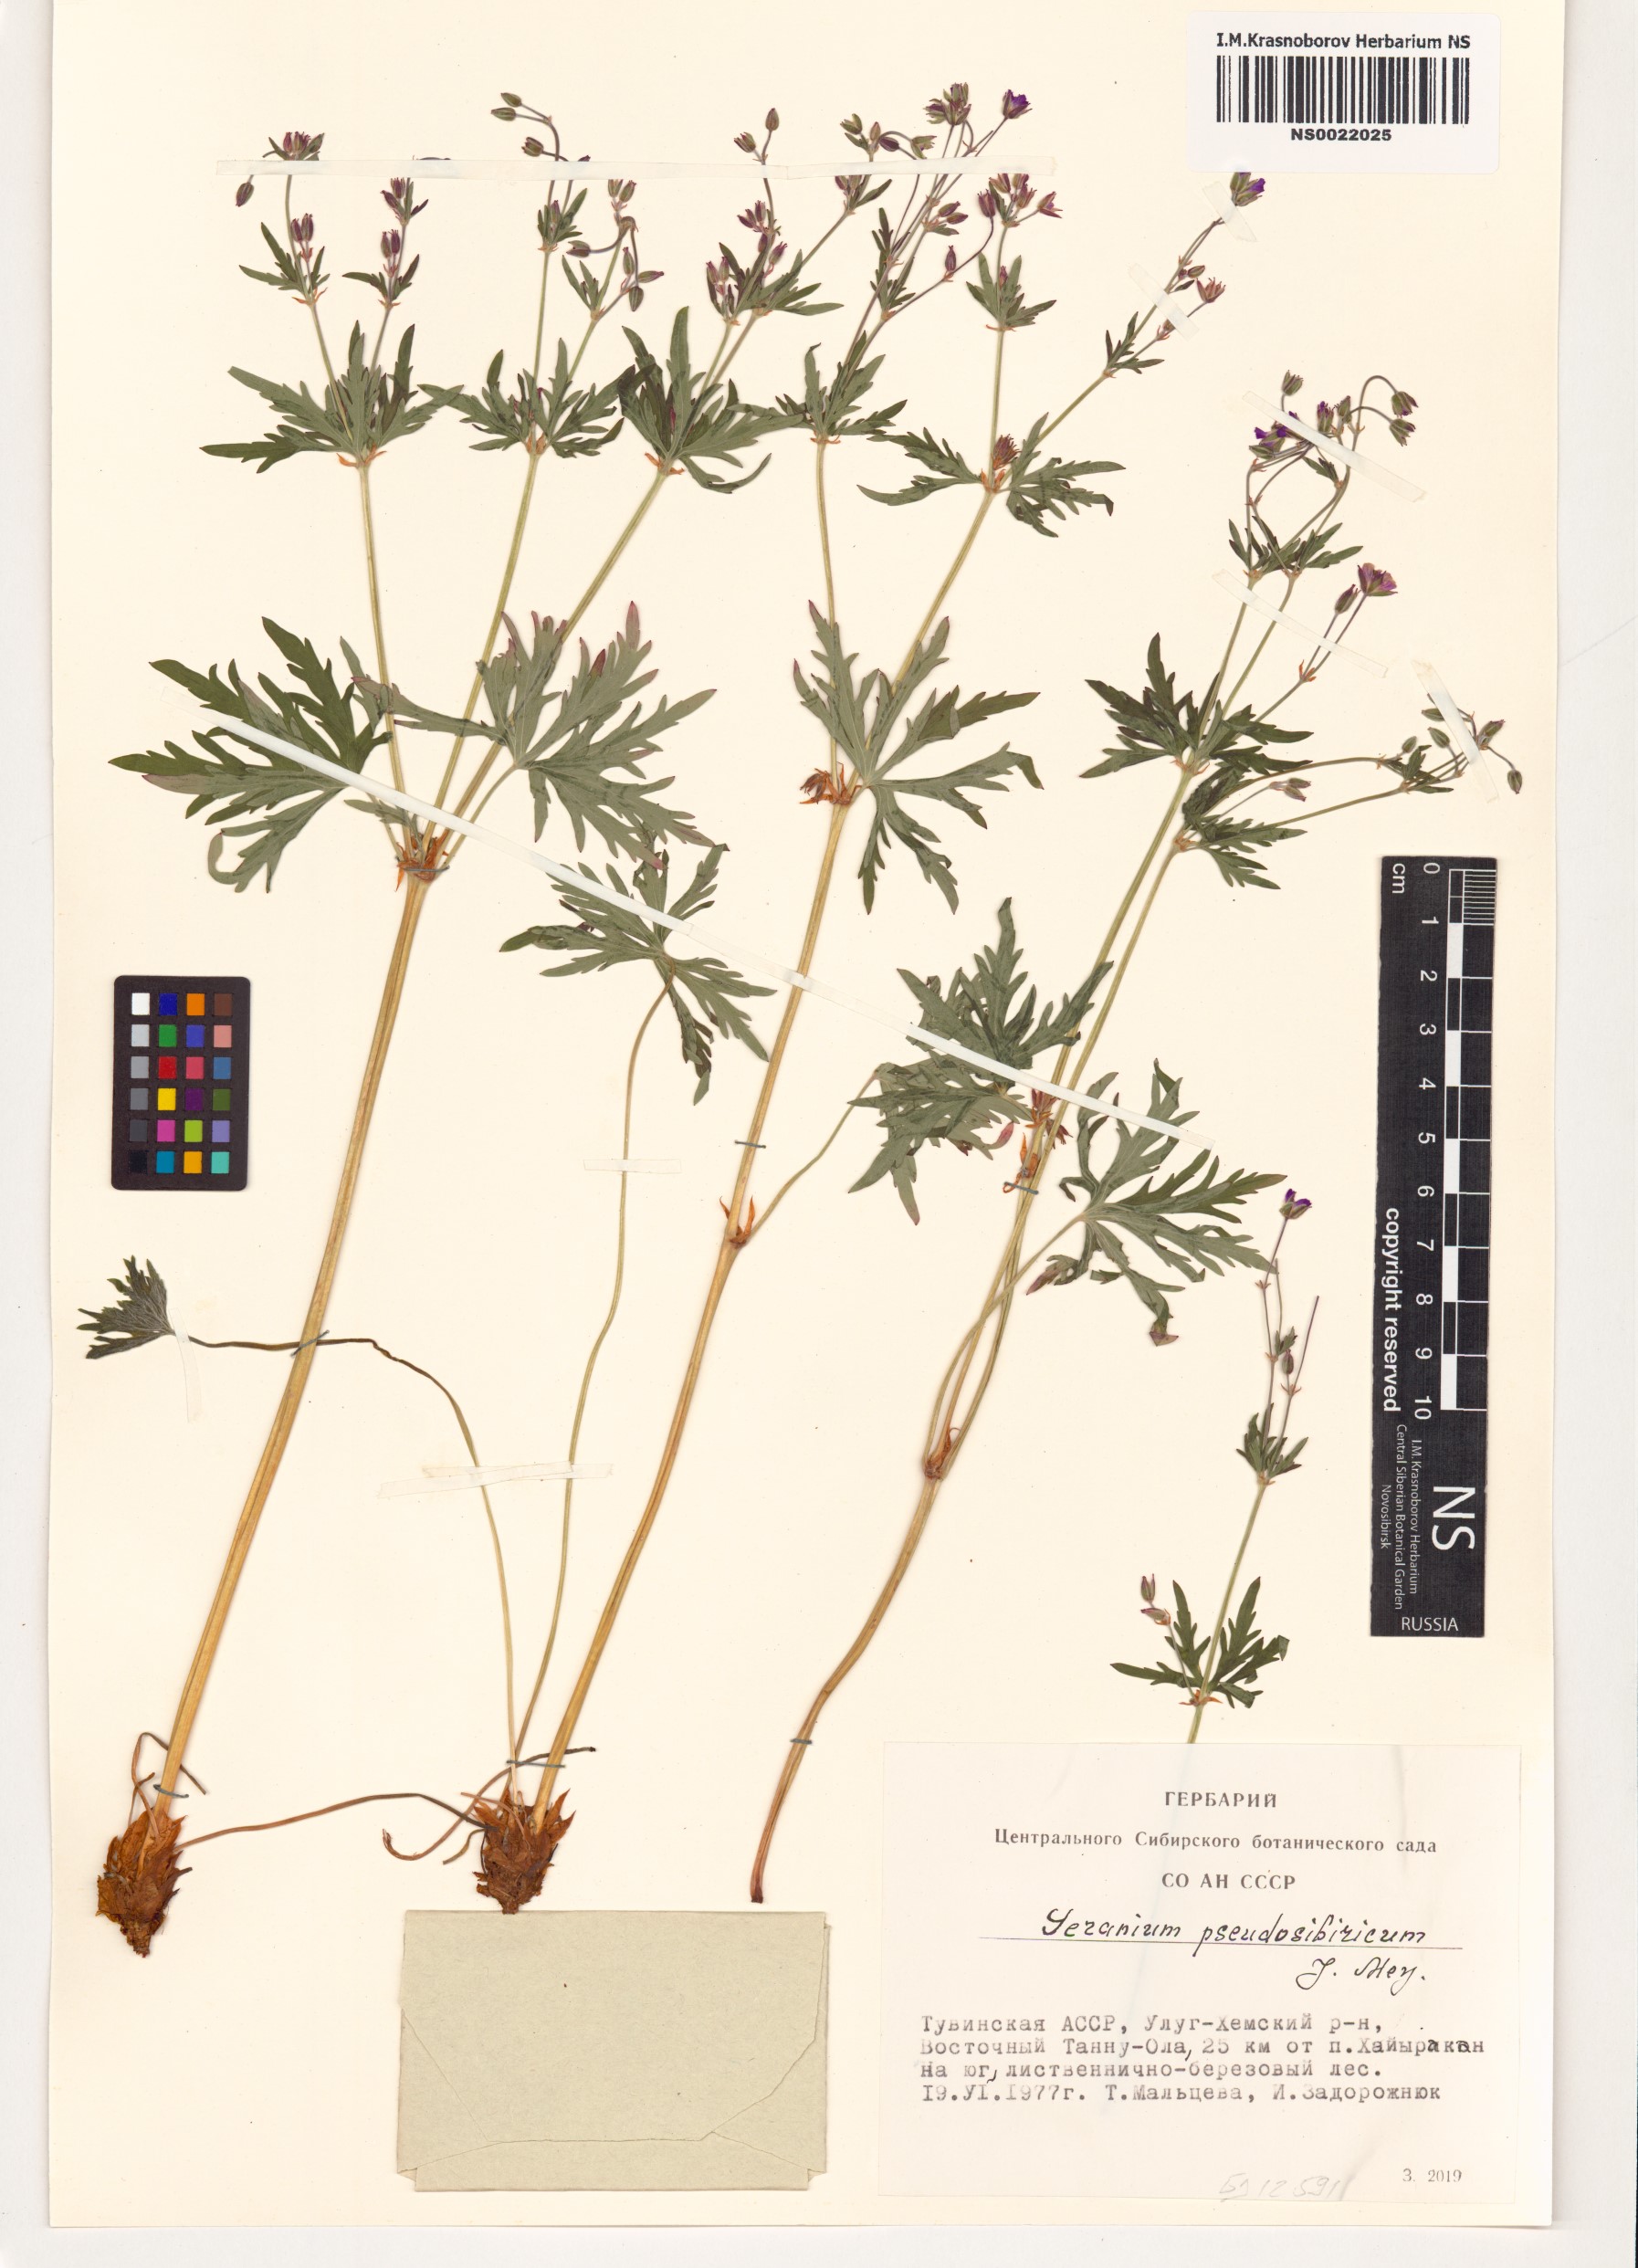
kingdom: Plantae
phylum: Tracheophyta
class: Magnoliopsida
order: Geraniales
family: Geraniaceae
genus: Geranium
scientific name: Geranium pseudosibiricum
